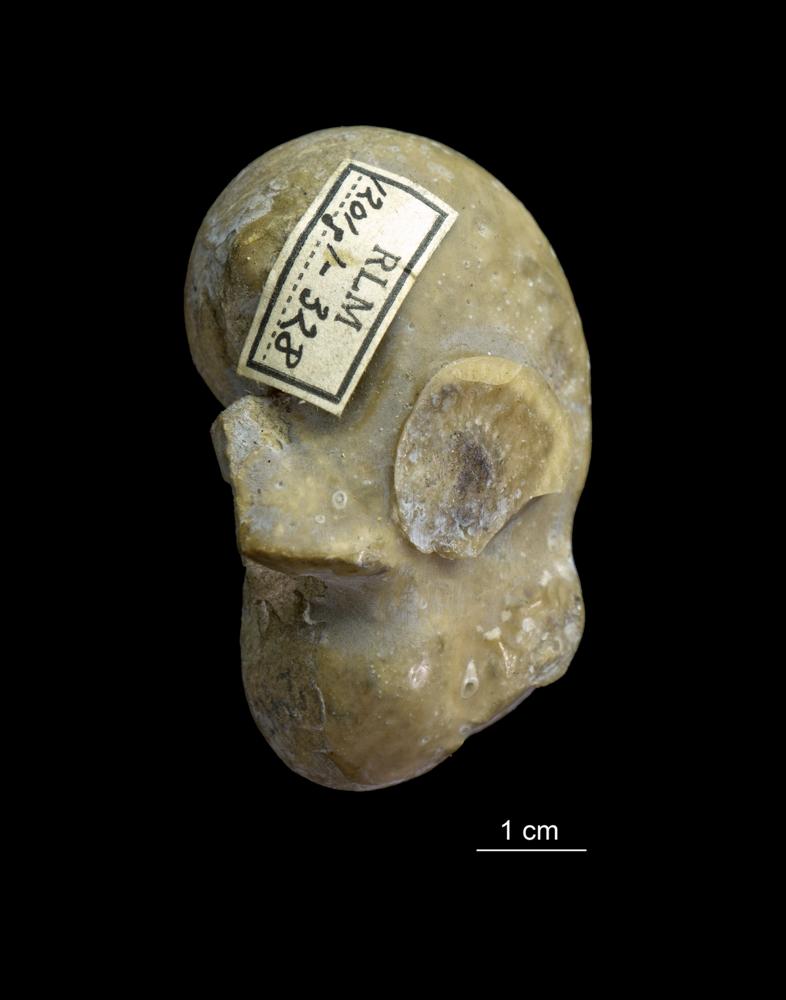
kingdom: Animalia
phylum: Mollusca
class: Gastropoda
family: Bucaniidae
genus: Tetranota
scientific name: Tetranota Bellerophon conspicuus
